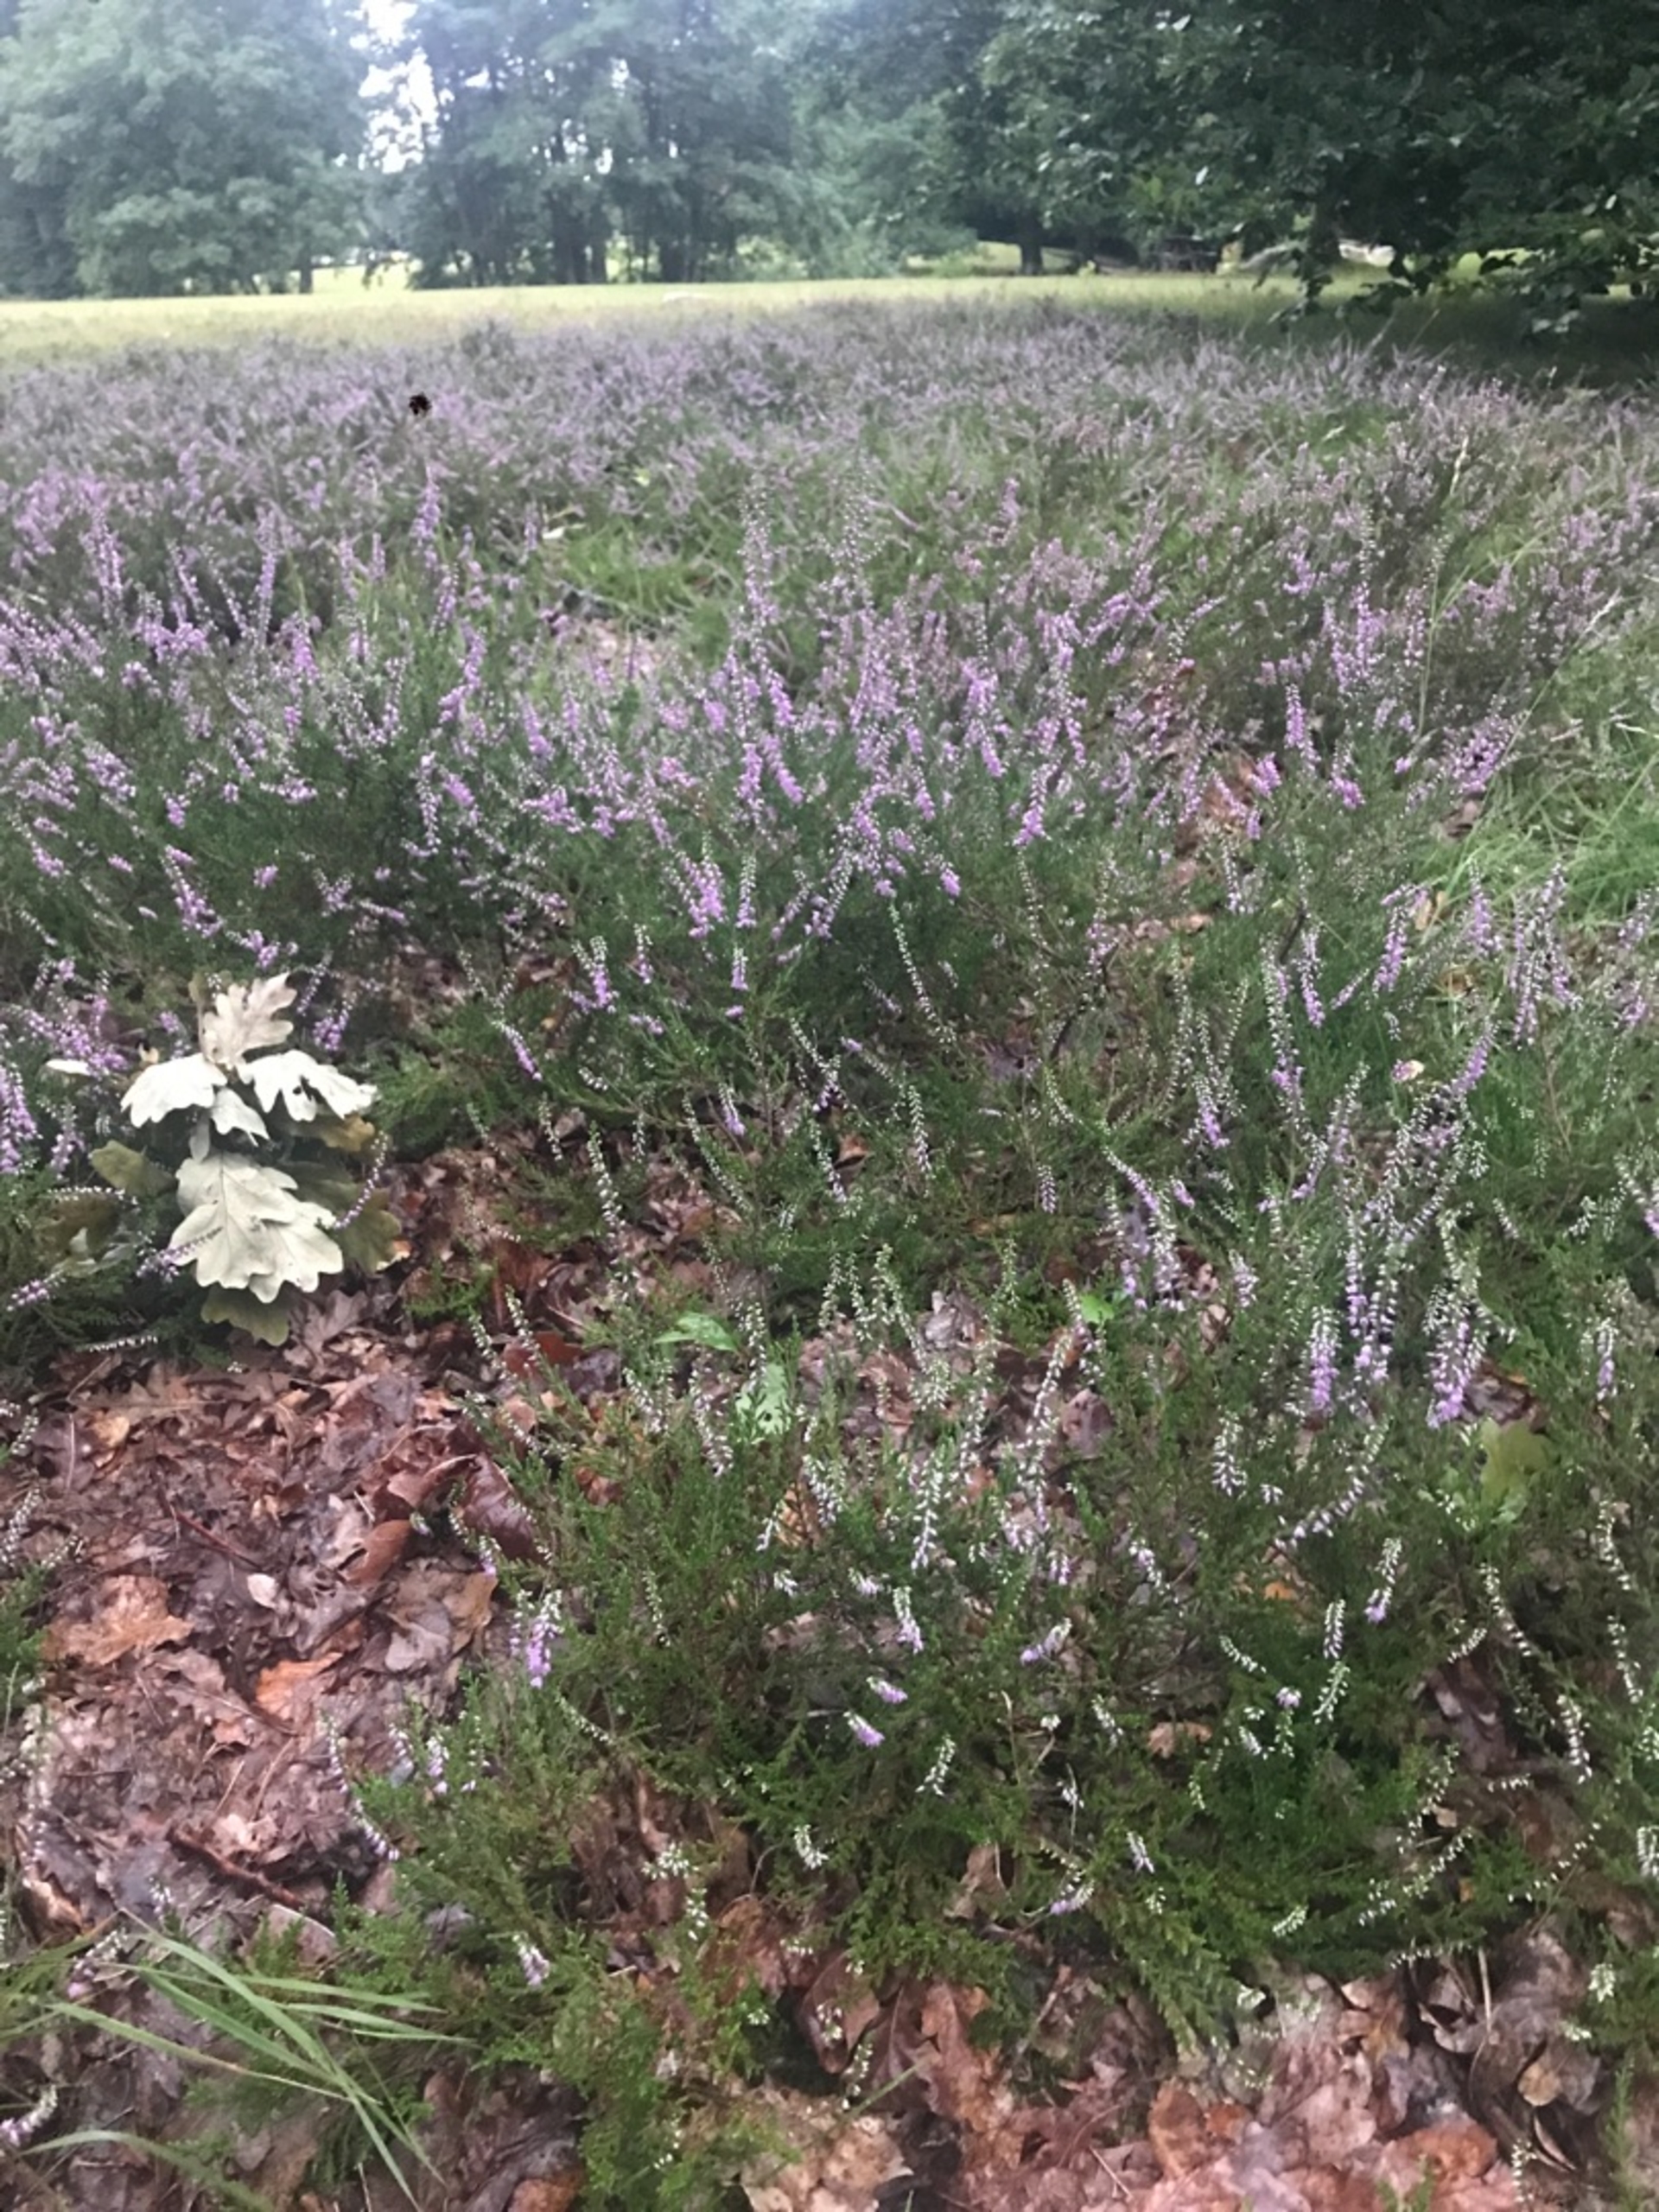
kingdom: Plantae
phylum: Tracheophyta
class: Magnoliopsida
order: Ericales
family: Ericaceae
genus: Calluna
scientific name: Calluna vulgaris
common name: Hedelyng
